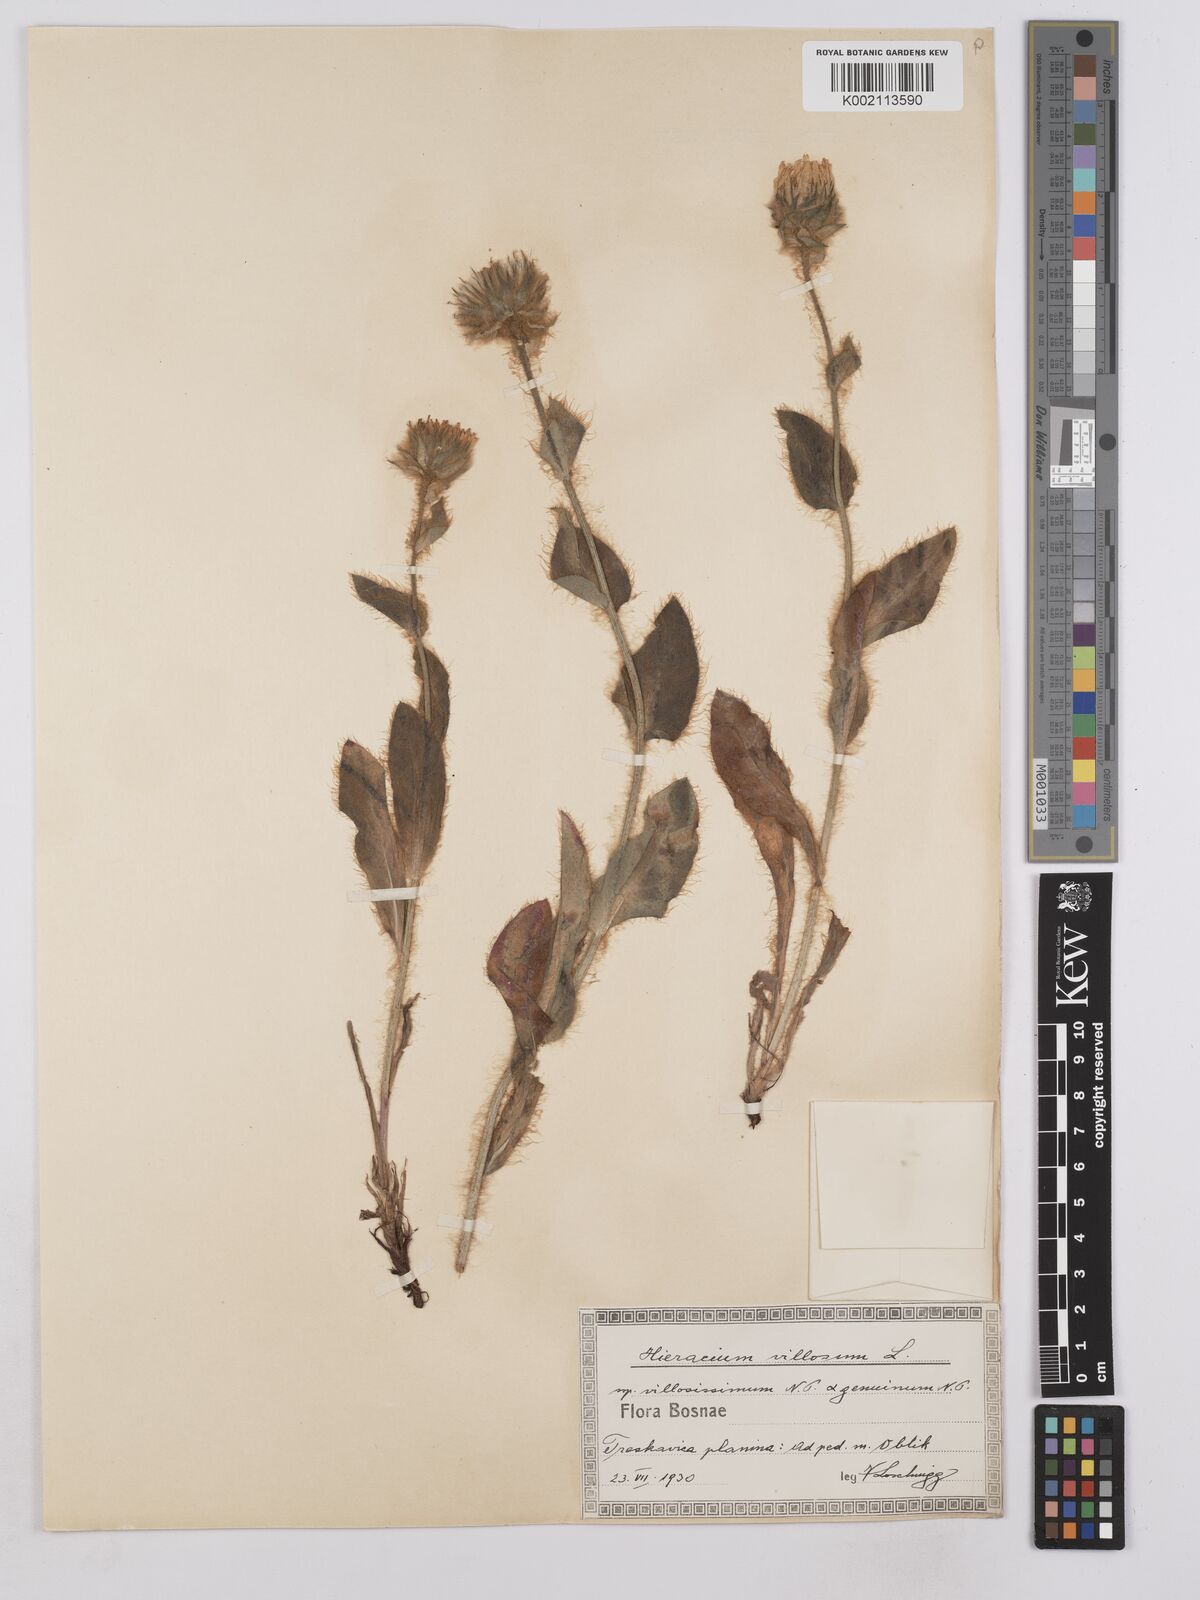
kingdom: Plantae
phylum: Tracheophyta
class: Magnoliopsida
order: Asterales
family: Asteraceae
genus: Hieracium
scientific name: Hieracium villosum
